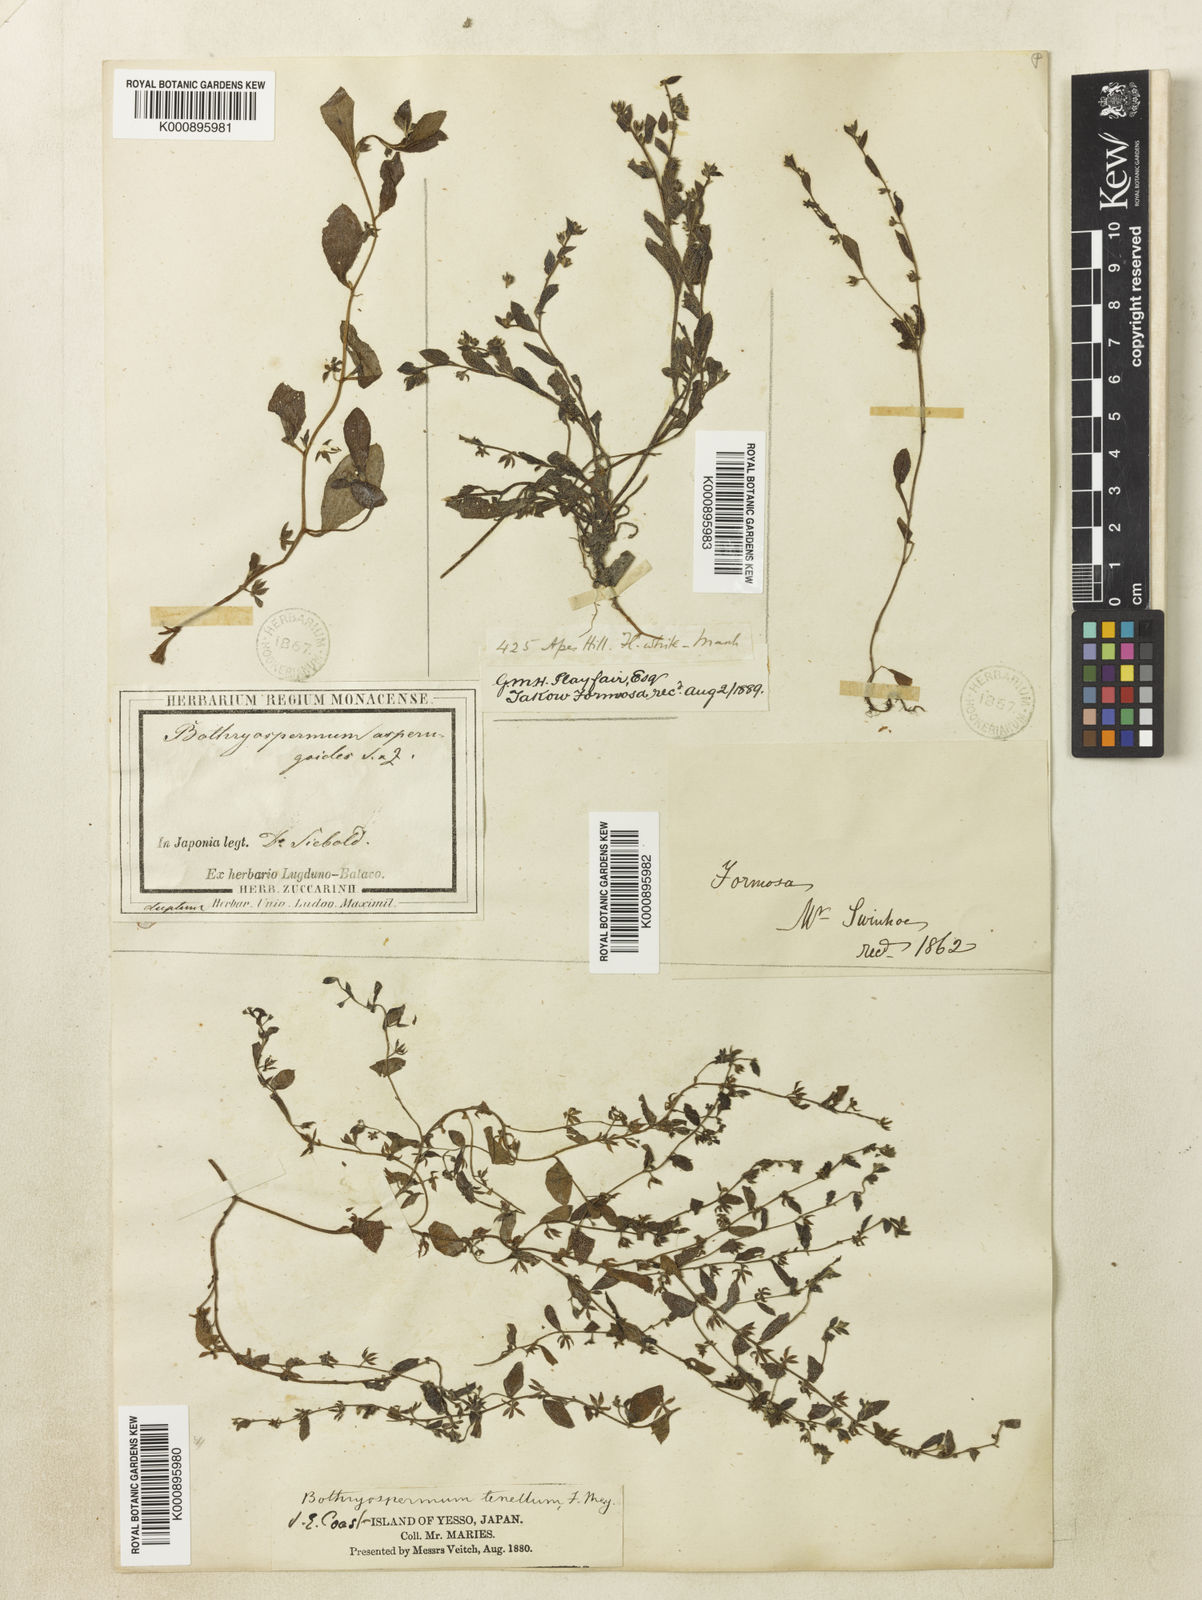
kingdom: Plantae
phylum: Tracheophyta
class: Magnoliopsida
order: Boraginales
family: Boraginaceae
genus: Bothriospermum
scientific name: Bothriospermum zeylanicum
